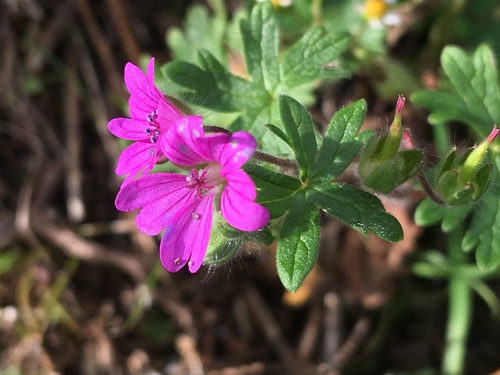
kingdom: Plantae
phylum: Tracheophyta
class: Magnoliopsida
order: Geraniales
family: Geraniaceae
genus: Geranium
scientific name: Geranium molle
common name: Dove's-foot crane's-bill
